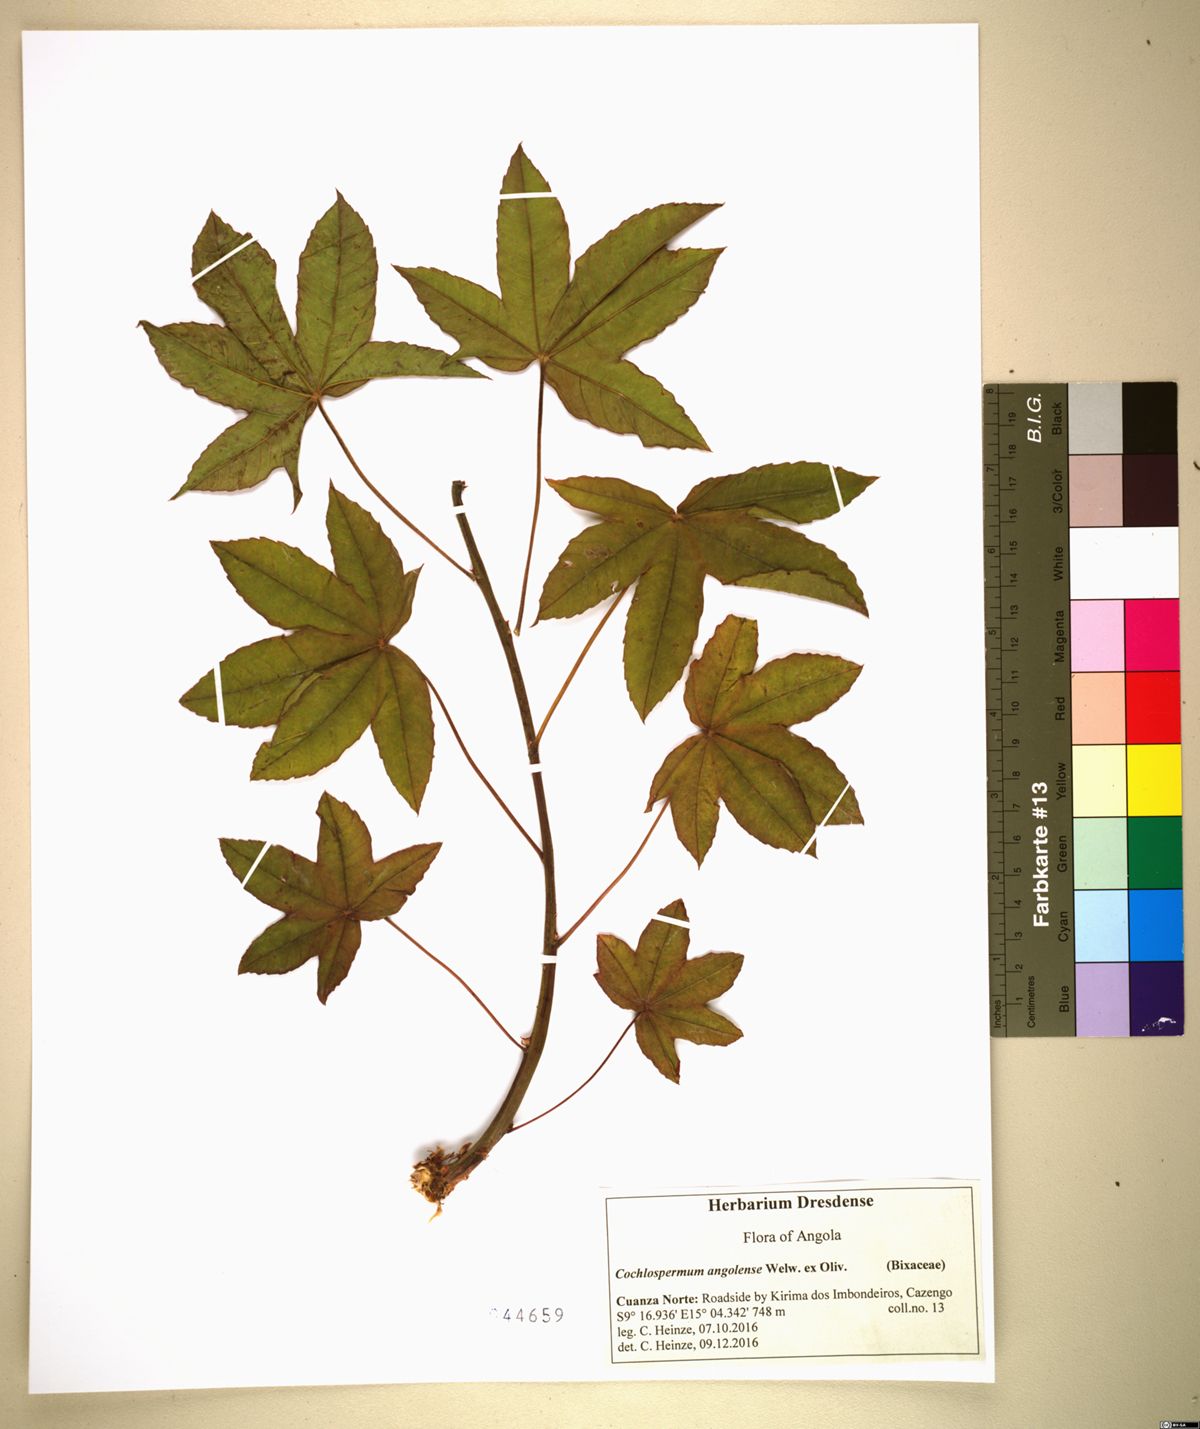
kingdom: Plantae
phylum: Tracheophyta
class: Magnoliopsida
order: Malvales
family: Cochlospermaceae
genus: Cochlospermum
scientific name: Cochlospermum angolense
